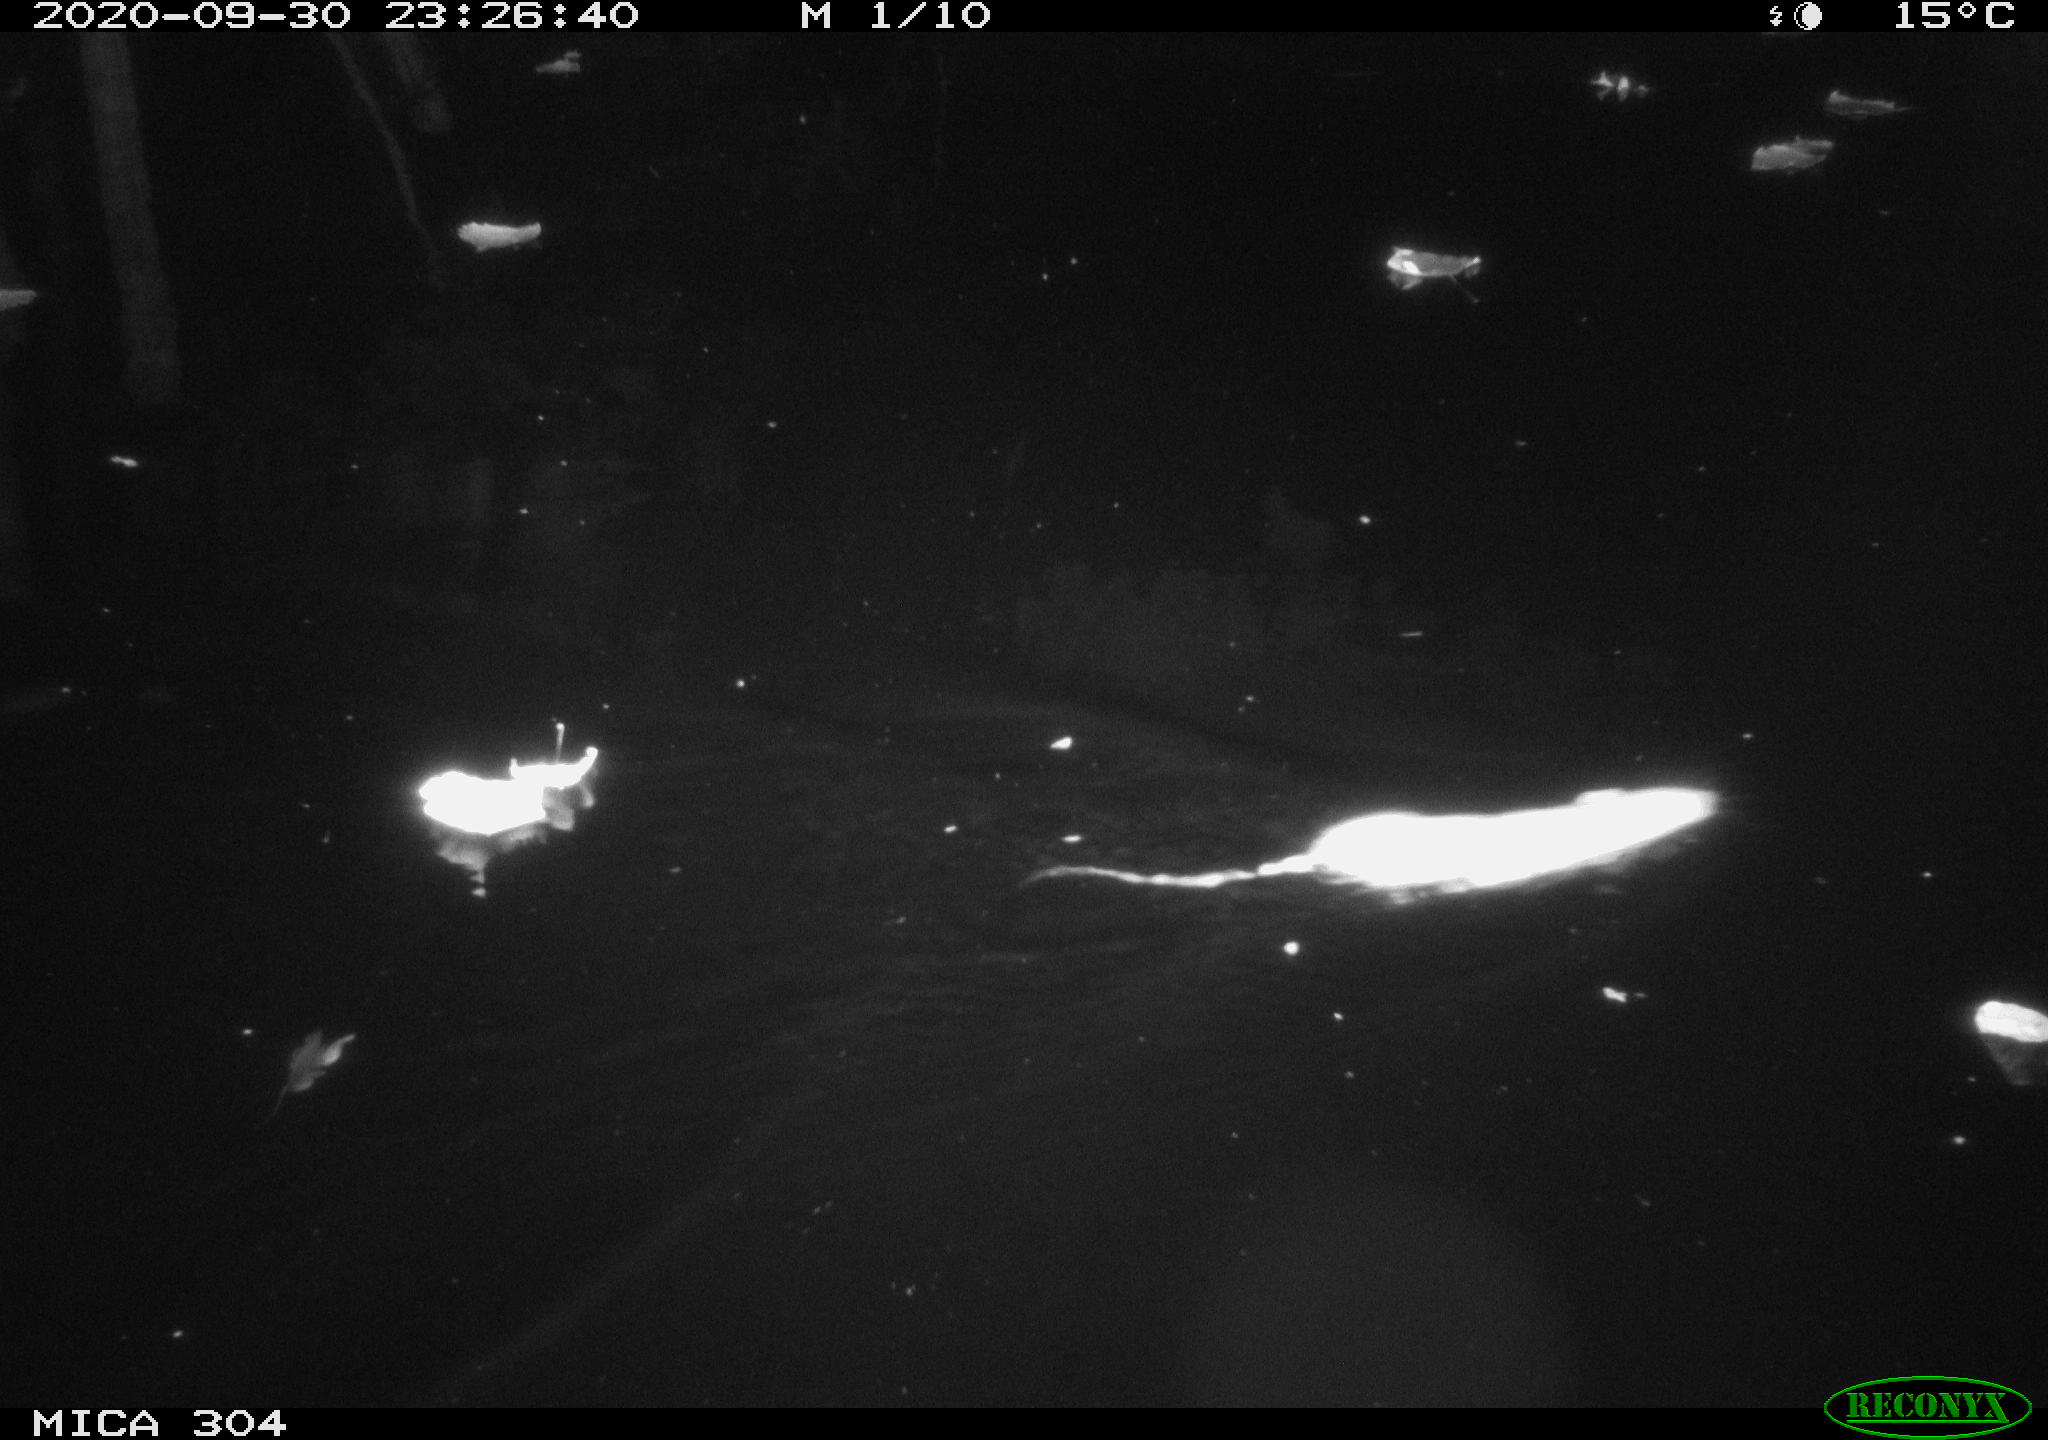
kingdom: Animalia
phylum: Chordata
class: Mammalia
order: Rodentia
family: Muridae
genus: Rattus
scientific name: Rattus norvegicus
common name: Brown rat
